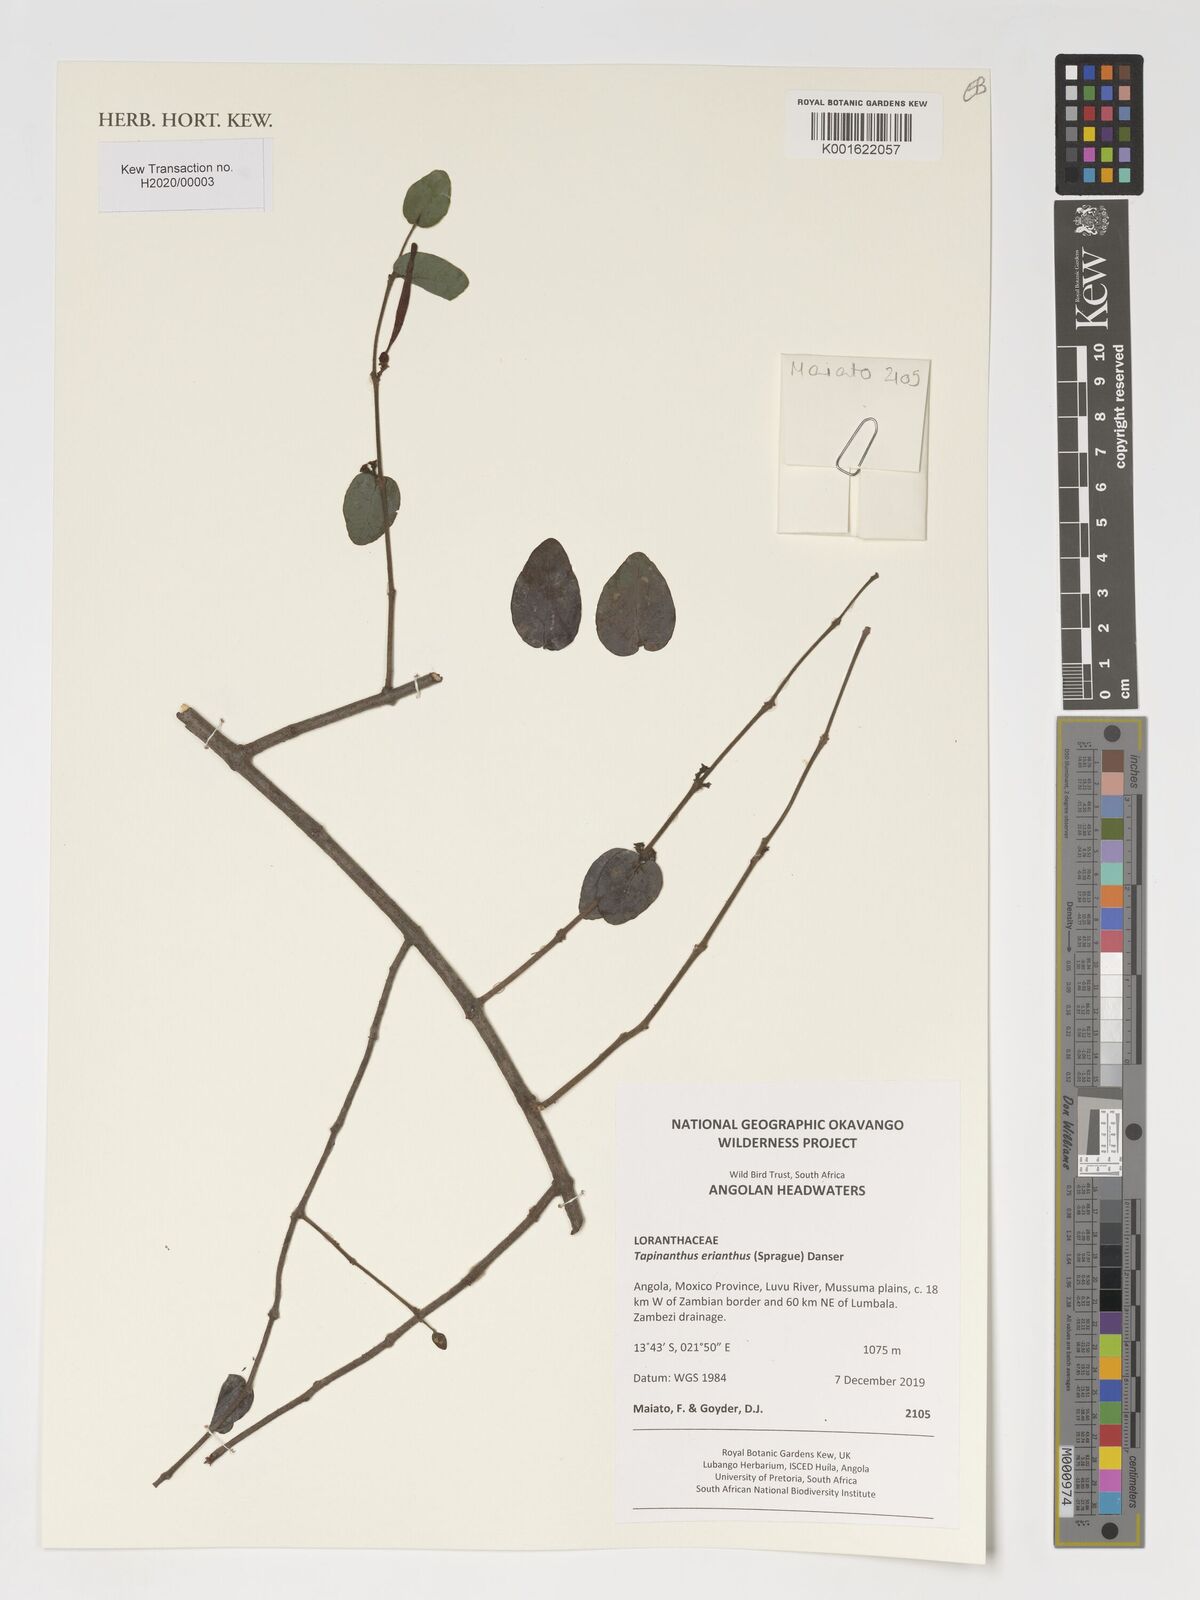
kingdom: Plantae
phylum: Tracheophyta
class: Magnoliopsida
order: Santalales
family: Loranthaceae
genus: Tapinanthus
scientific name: Tapinanthus erianthus
